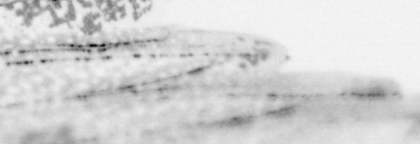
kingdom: Animalia
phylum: Chordata
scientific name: Chordata
